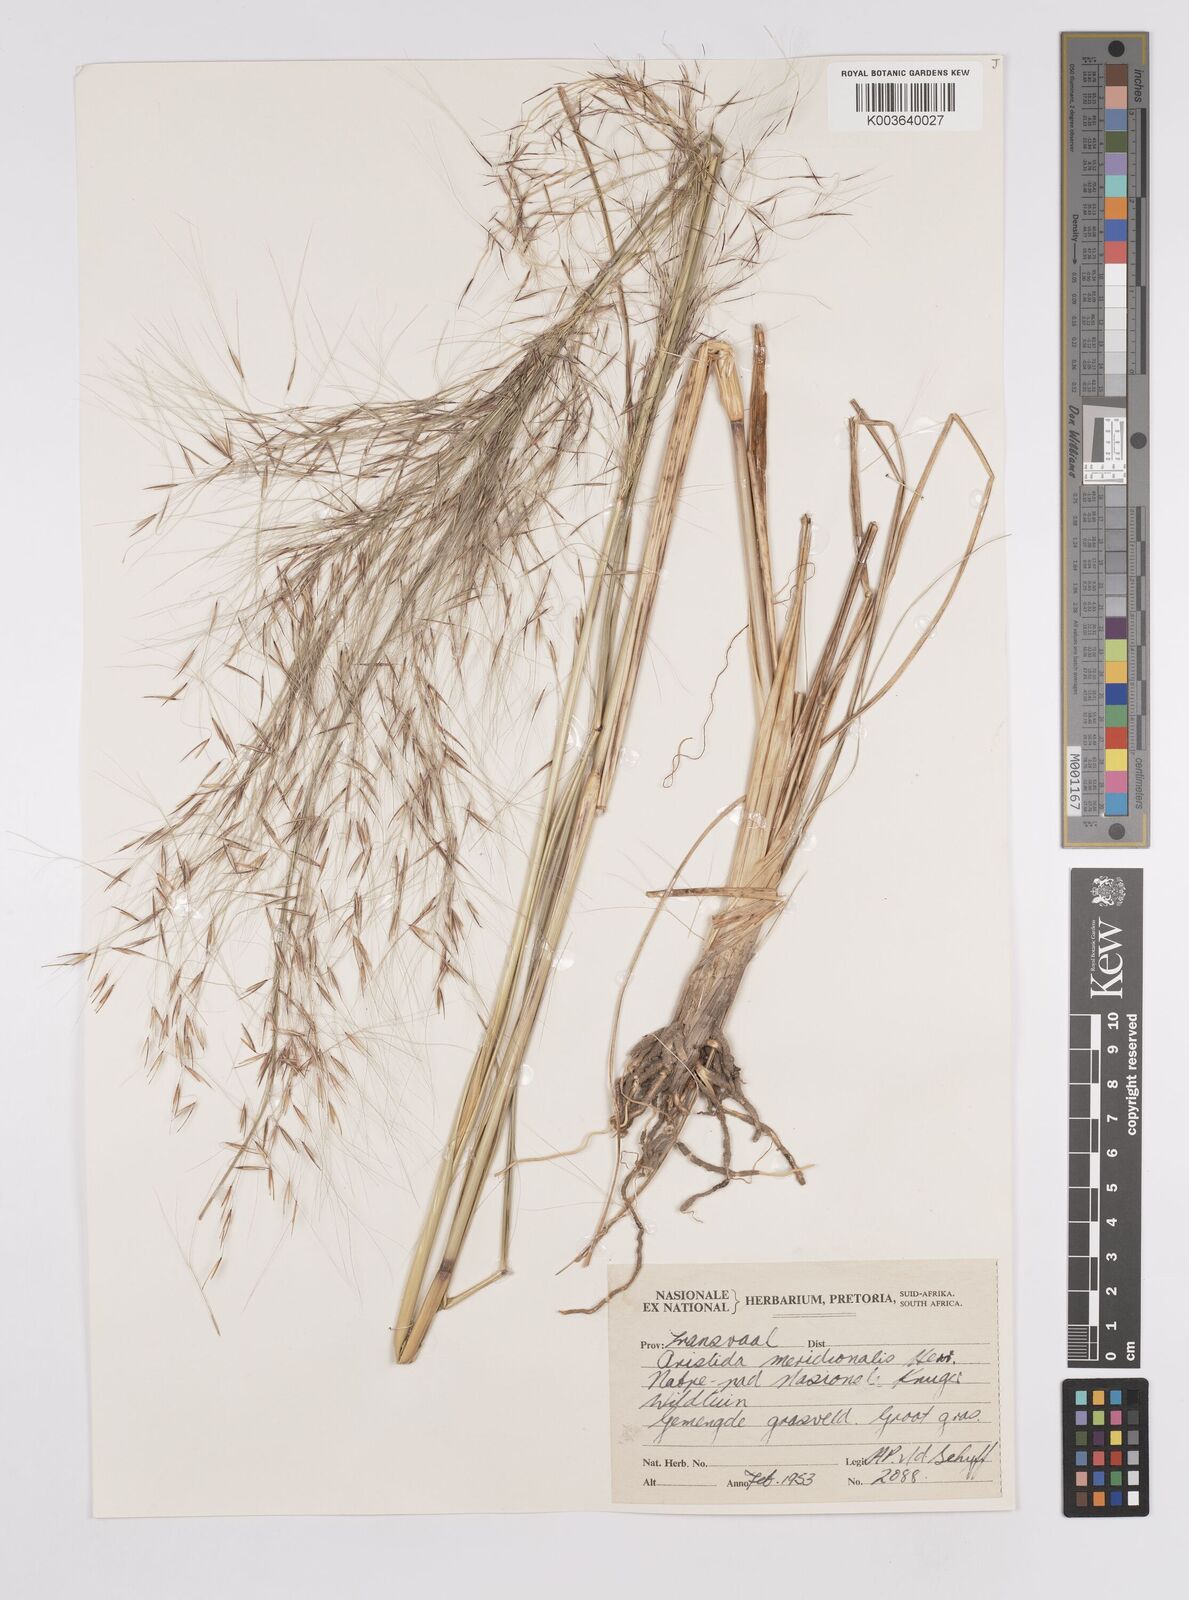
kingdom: Plantae
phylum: Tracheophyta
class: Liliopsida
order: Poales
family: Poaceae
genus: Aristida
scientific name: Aristida meridionalis
